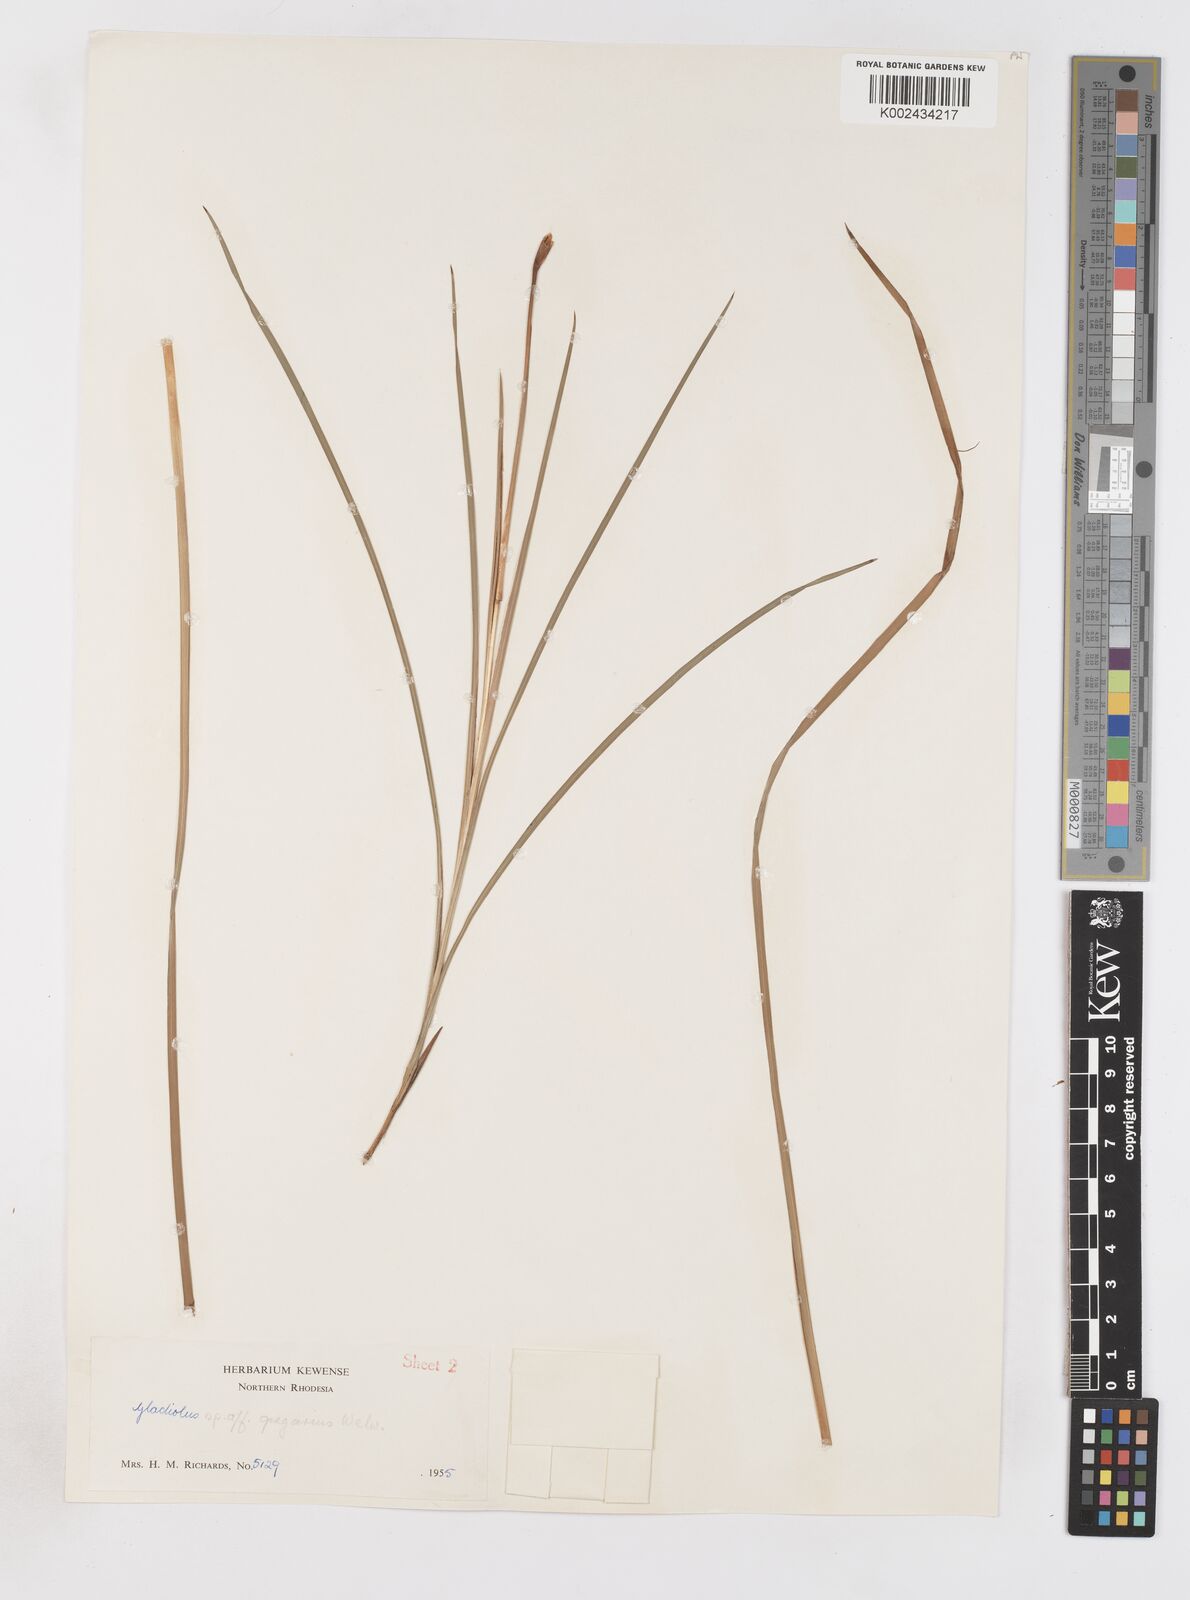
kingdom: Plantae
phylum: Tracheophyta
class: Liliopsida
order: Asparagales
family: Iridaceae
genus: Gladiolus
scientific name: Gladiolus gregarius
